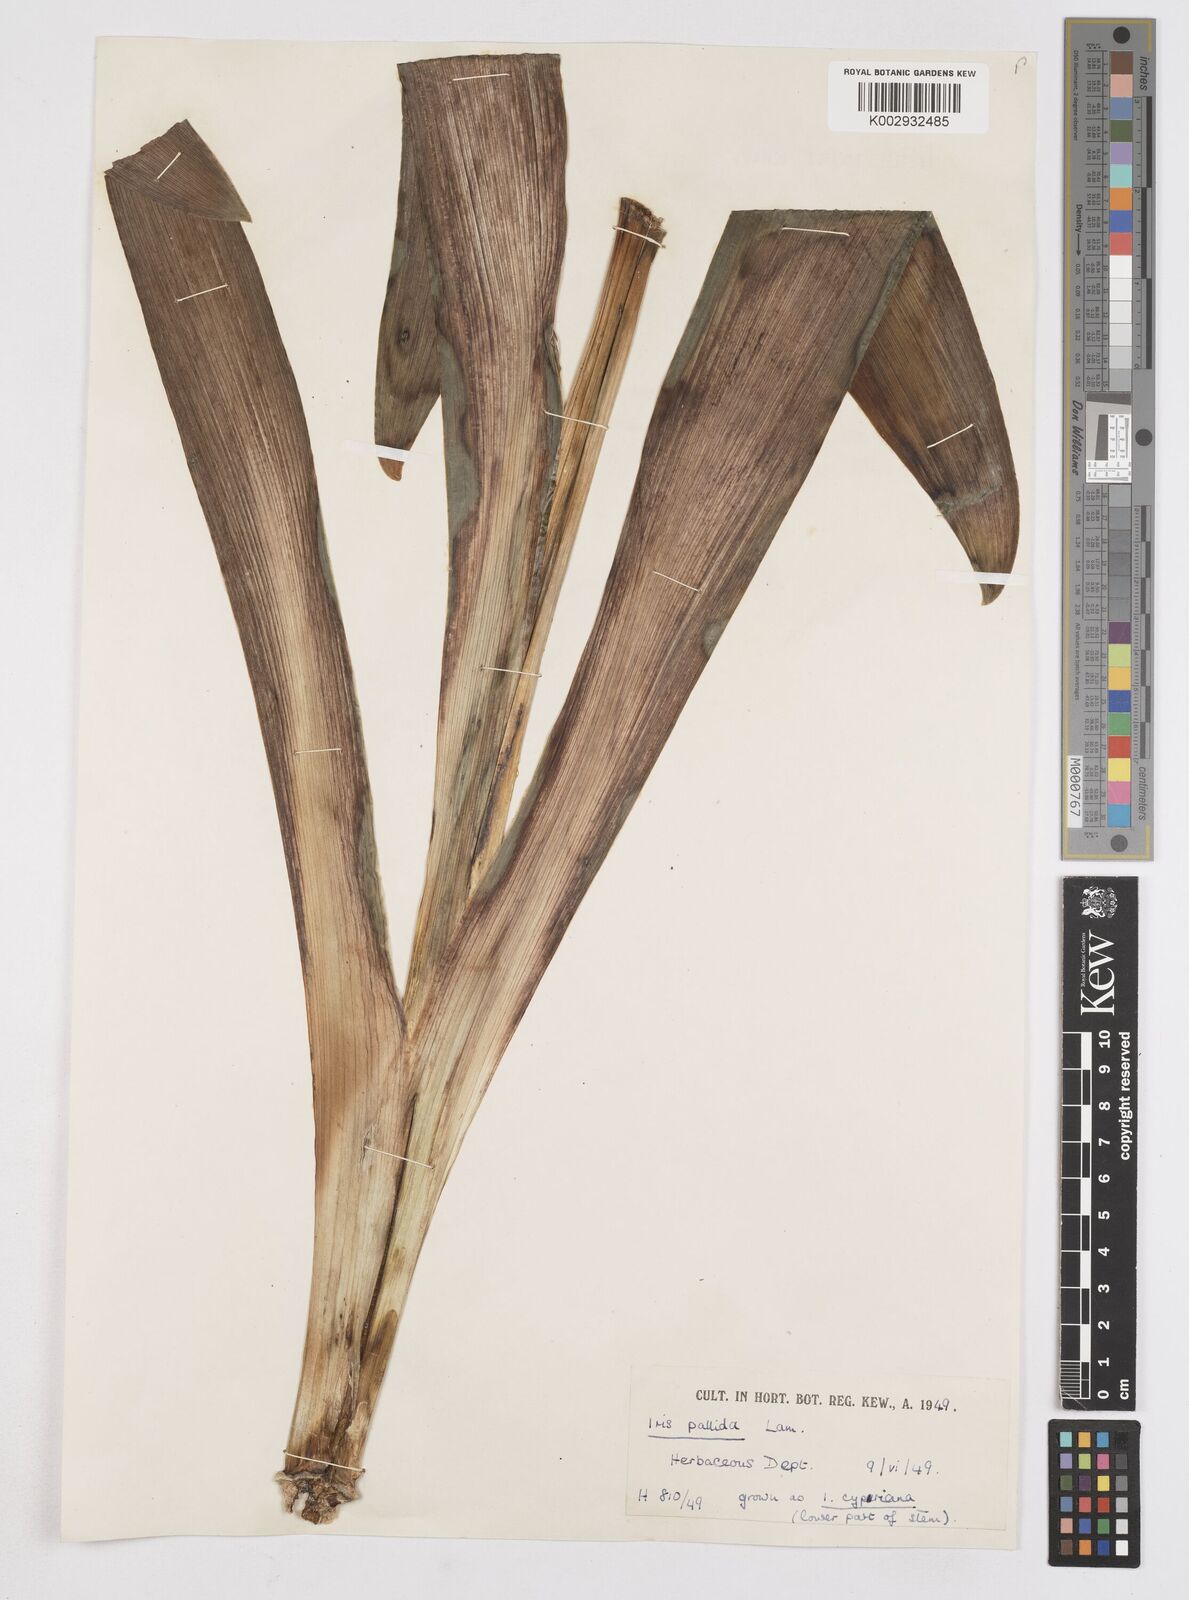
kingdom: Plantae
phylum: Tracheophyta
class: Liliopsida
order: Asparagales
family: Iridaceae
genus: Iris
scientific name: Iris
